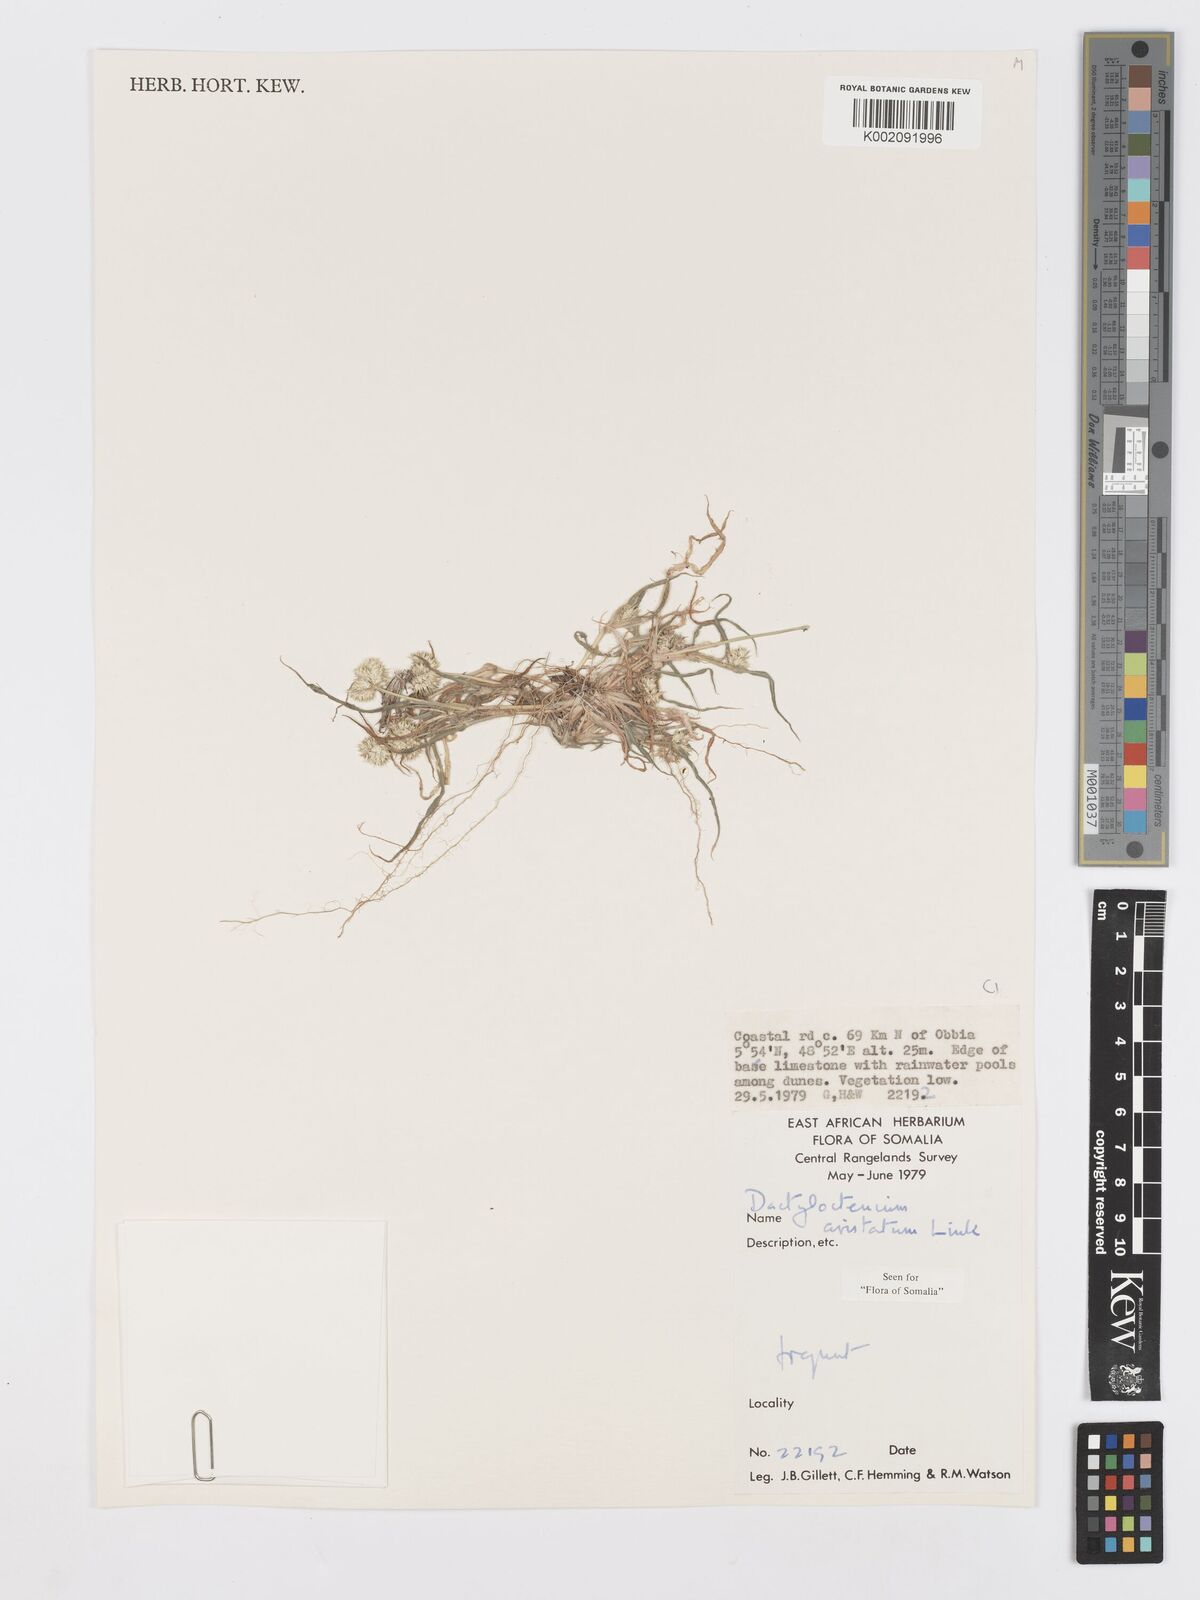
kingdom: Plantae
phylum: Tracheophyta
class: Liliopsida
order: Poales
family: Poaceae
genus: Dactyloctenium
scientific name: Dactyloctenium aristatum
